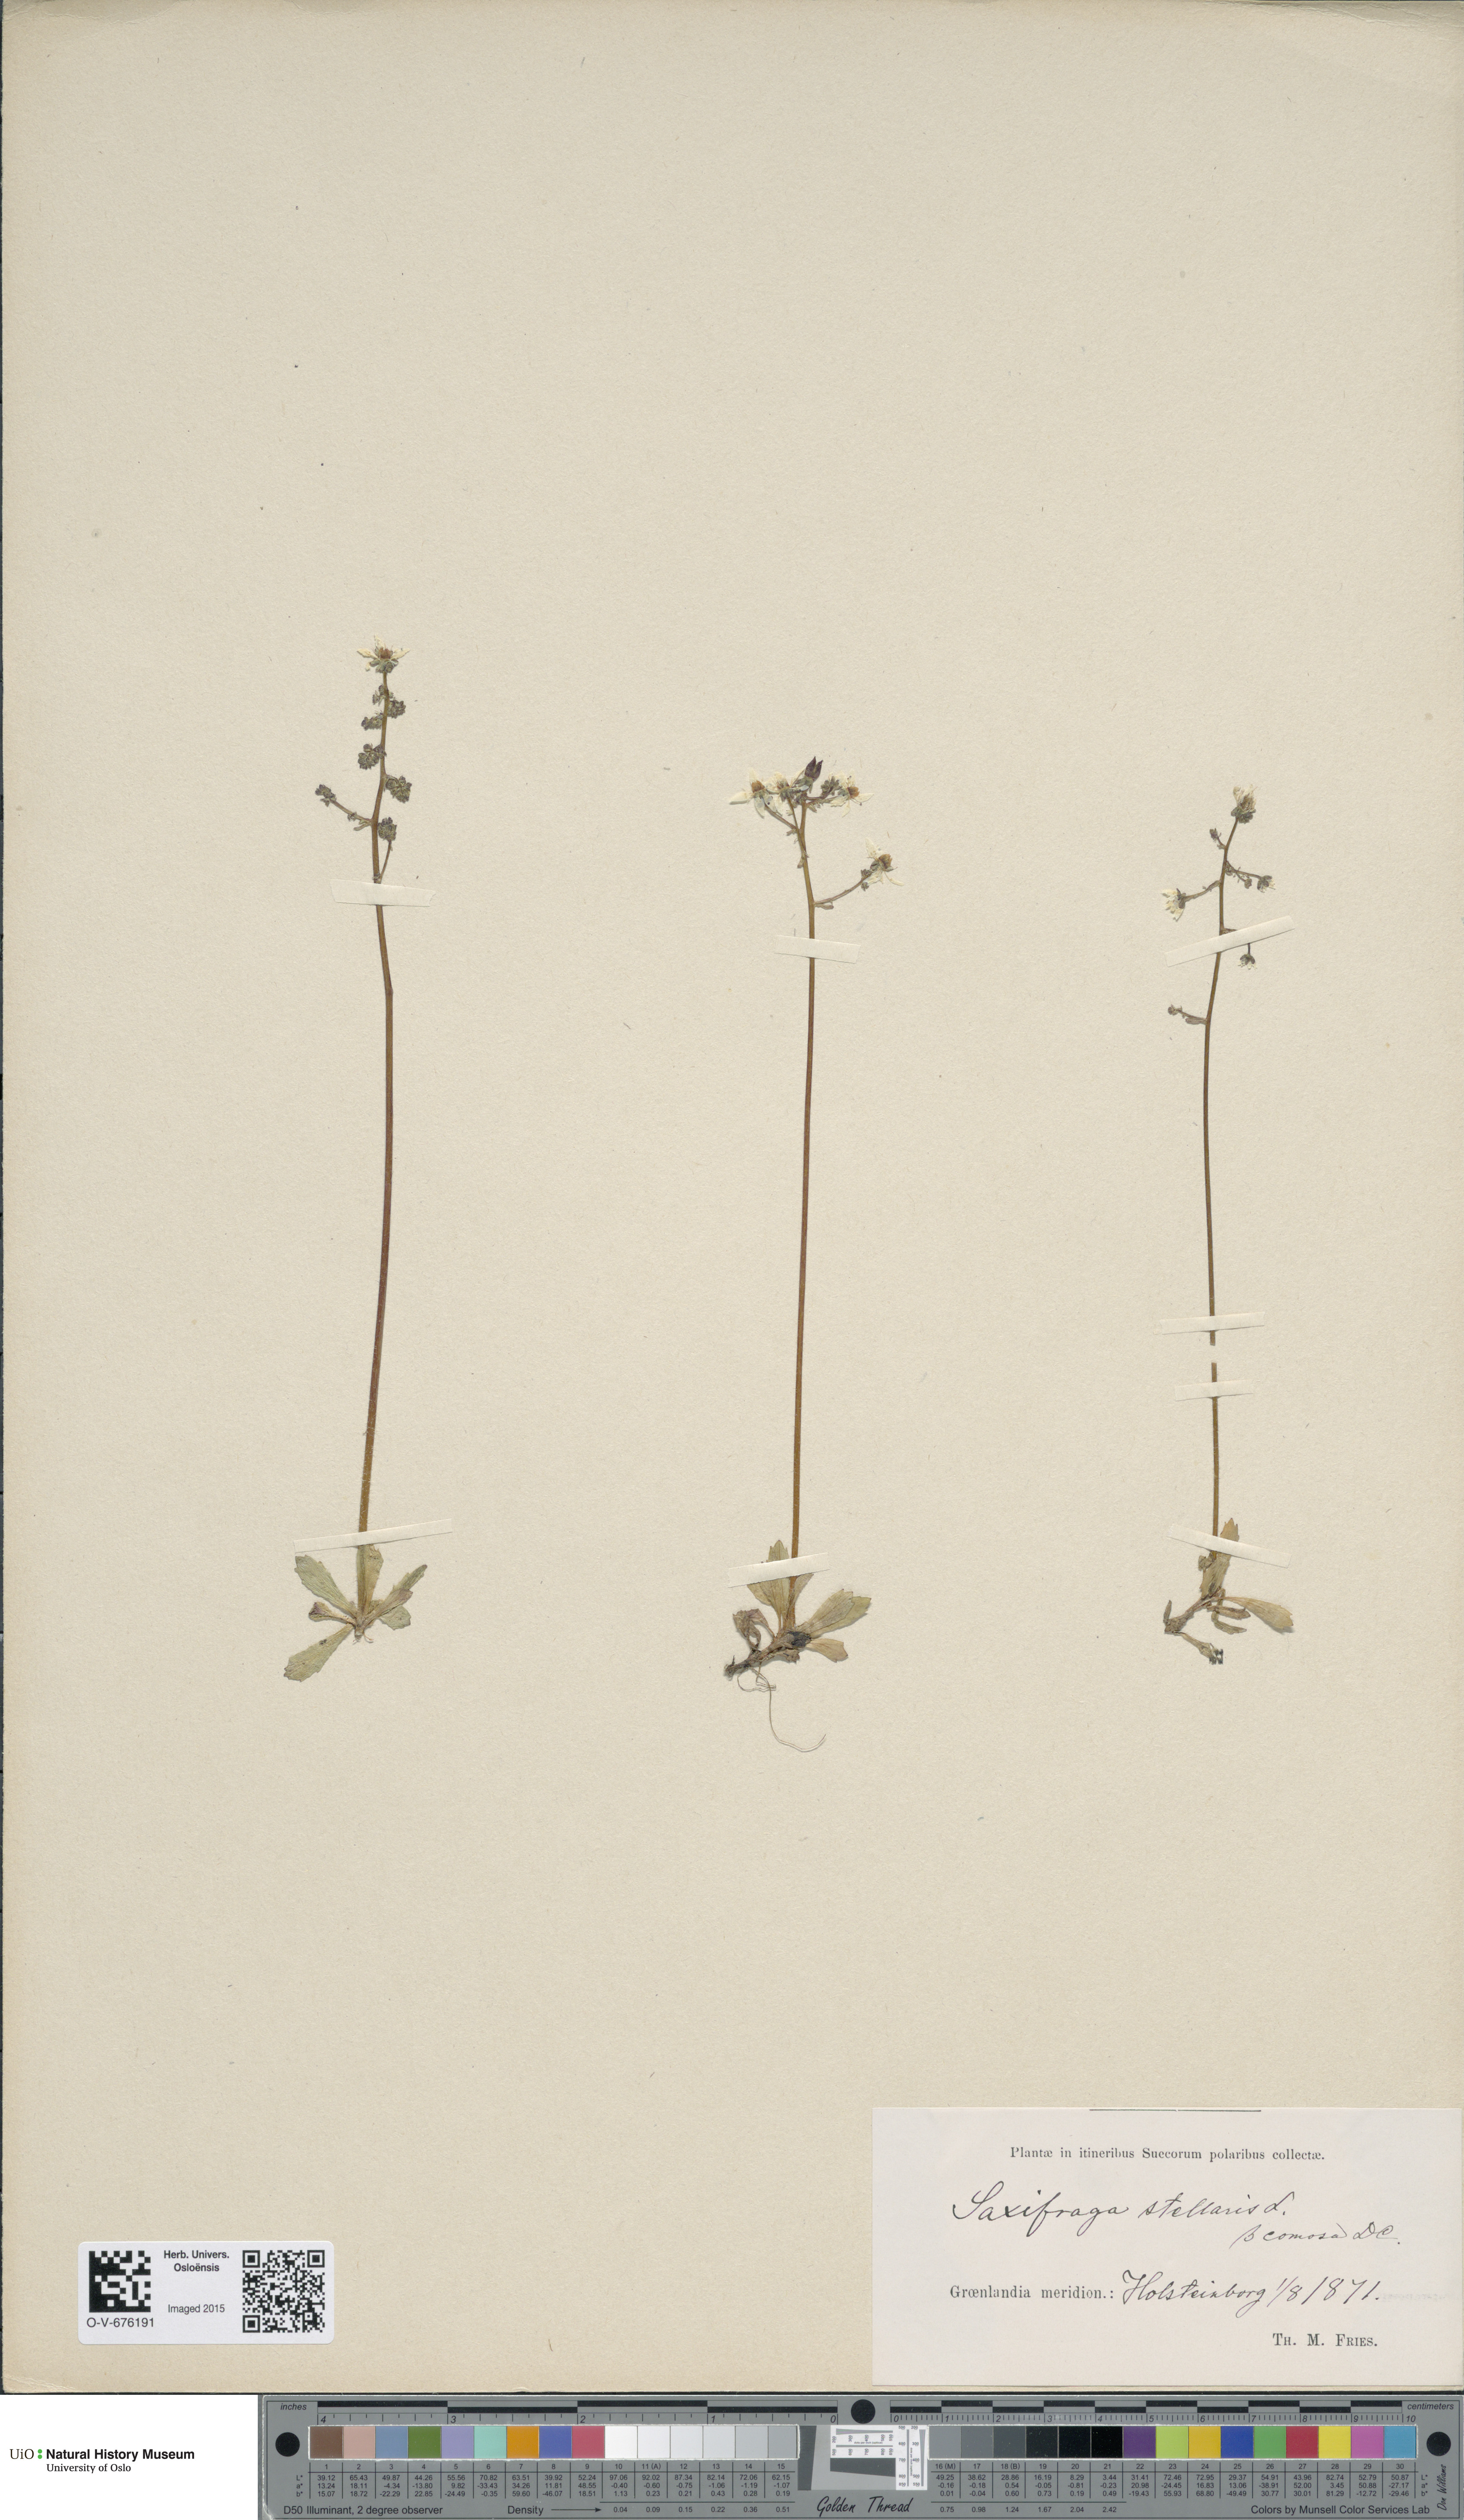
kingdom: Plantae
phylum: Tracheophyta
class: Magnoliopsida
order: Saxifragales
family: Saxifragaceae
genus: Micranthes
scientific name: Micranthes foliolosa
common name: Leafystem saxifrage
